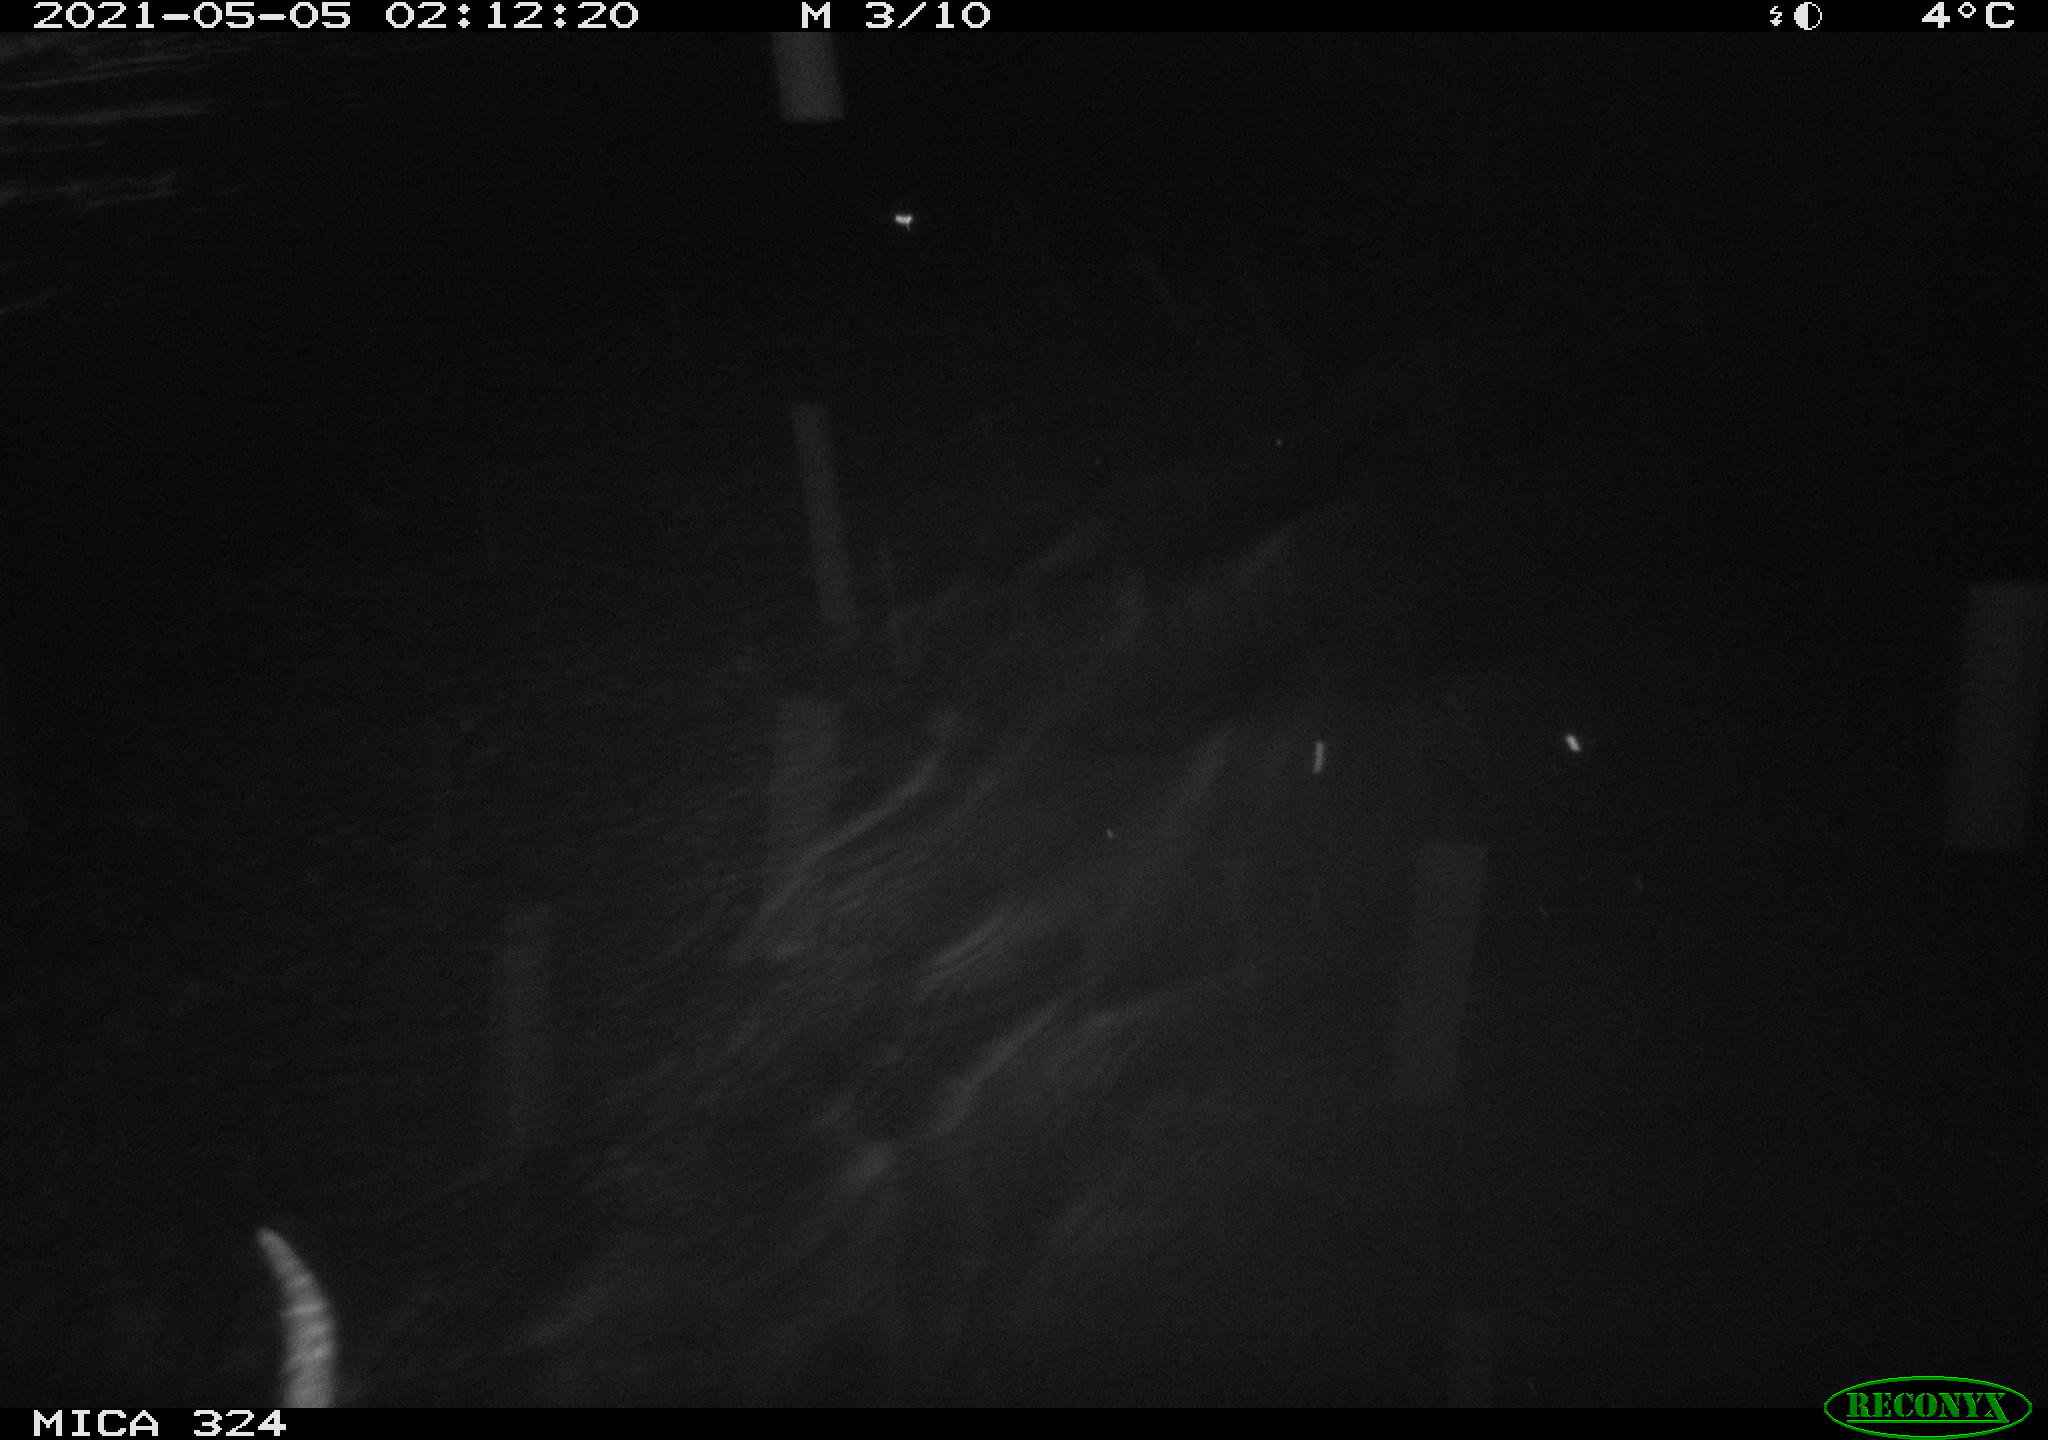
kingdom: Animalia
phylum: Chordata
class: Mammalia
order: Rodentia
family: Myocastoridae
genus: Myocastor
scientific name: Myocastor coypus
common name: Coypu
